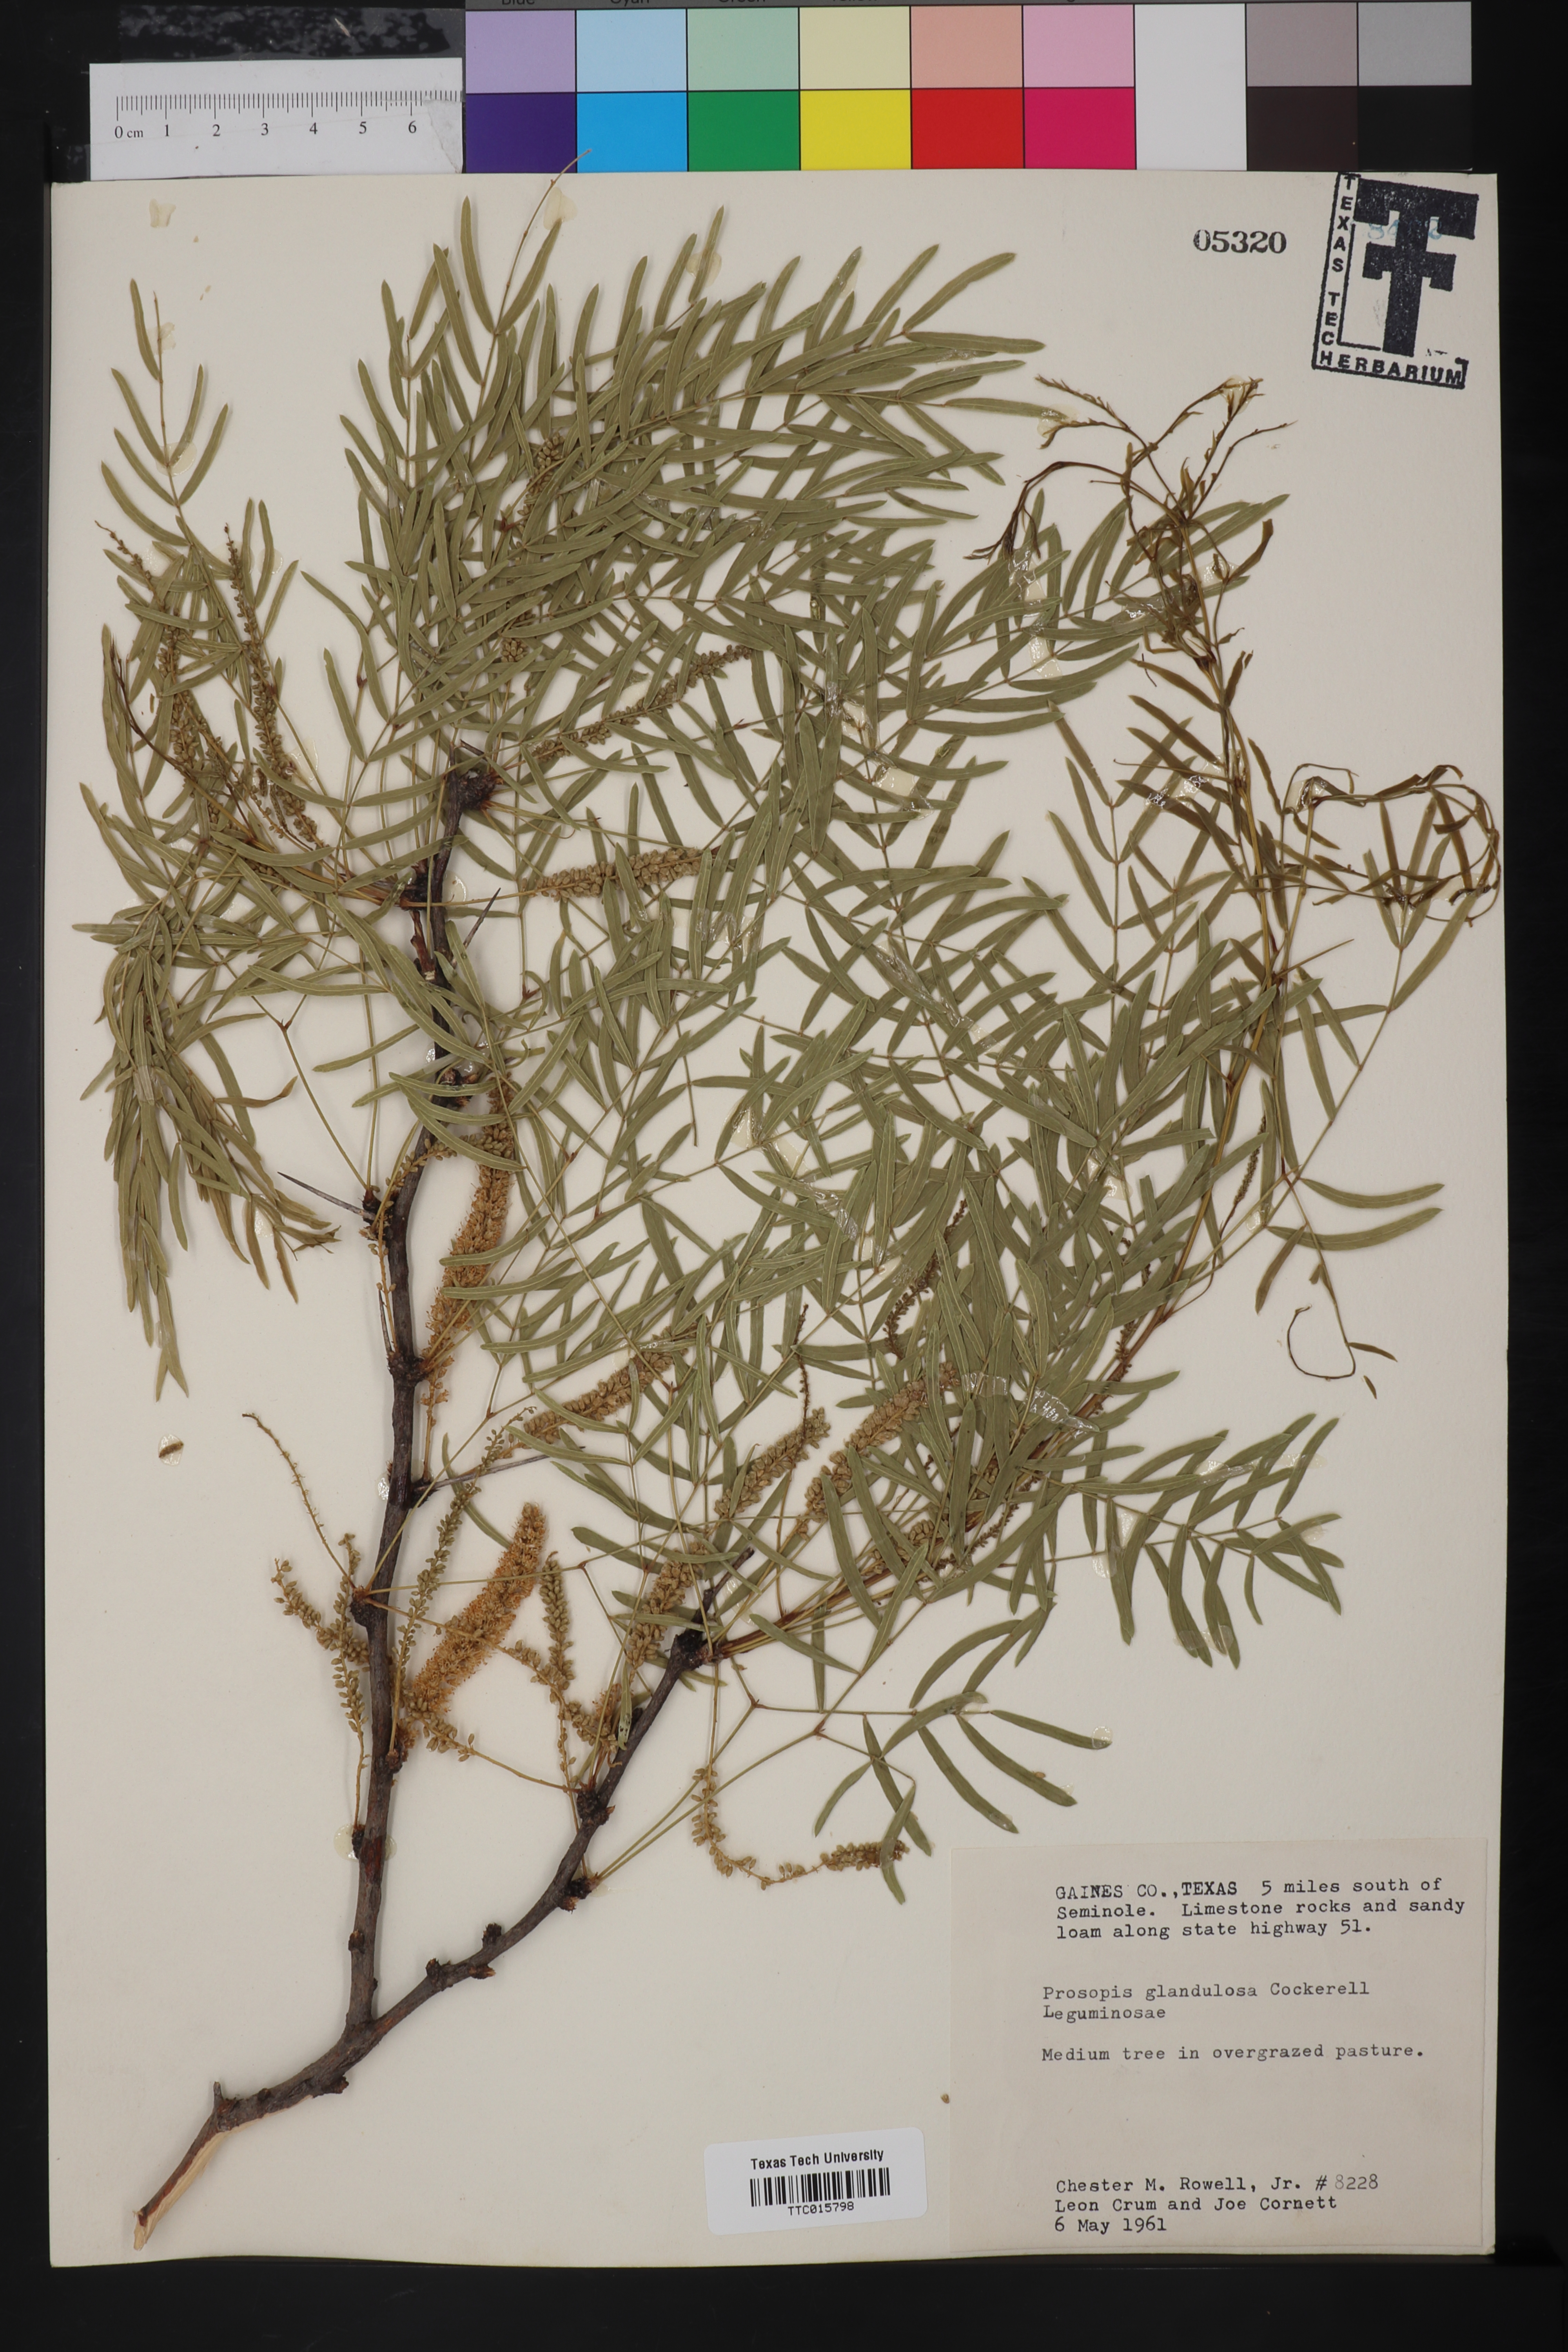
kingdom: Plantae
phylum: Tracheophyta
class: Magnoliopsida
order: Fabales
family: Fabaceae
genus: Prosopis
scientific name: Prosopis glandulosa
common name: Honey mesquite
